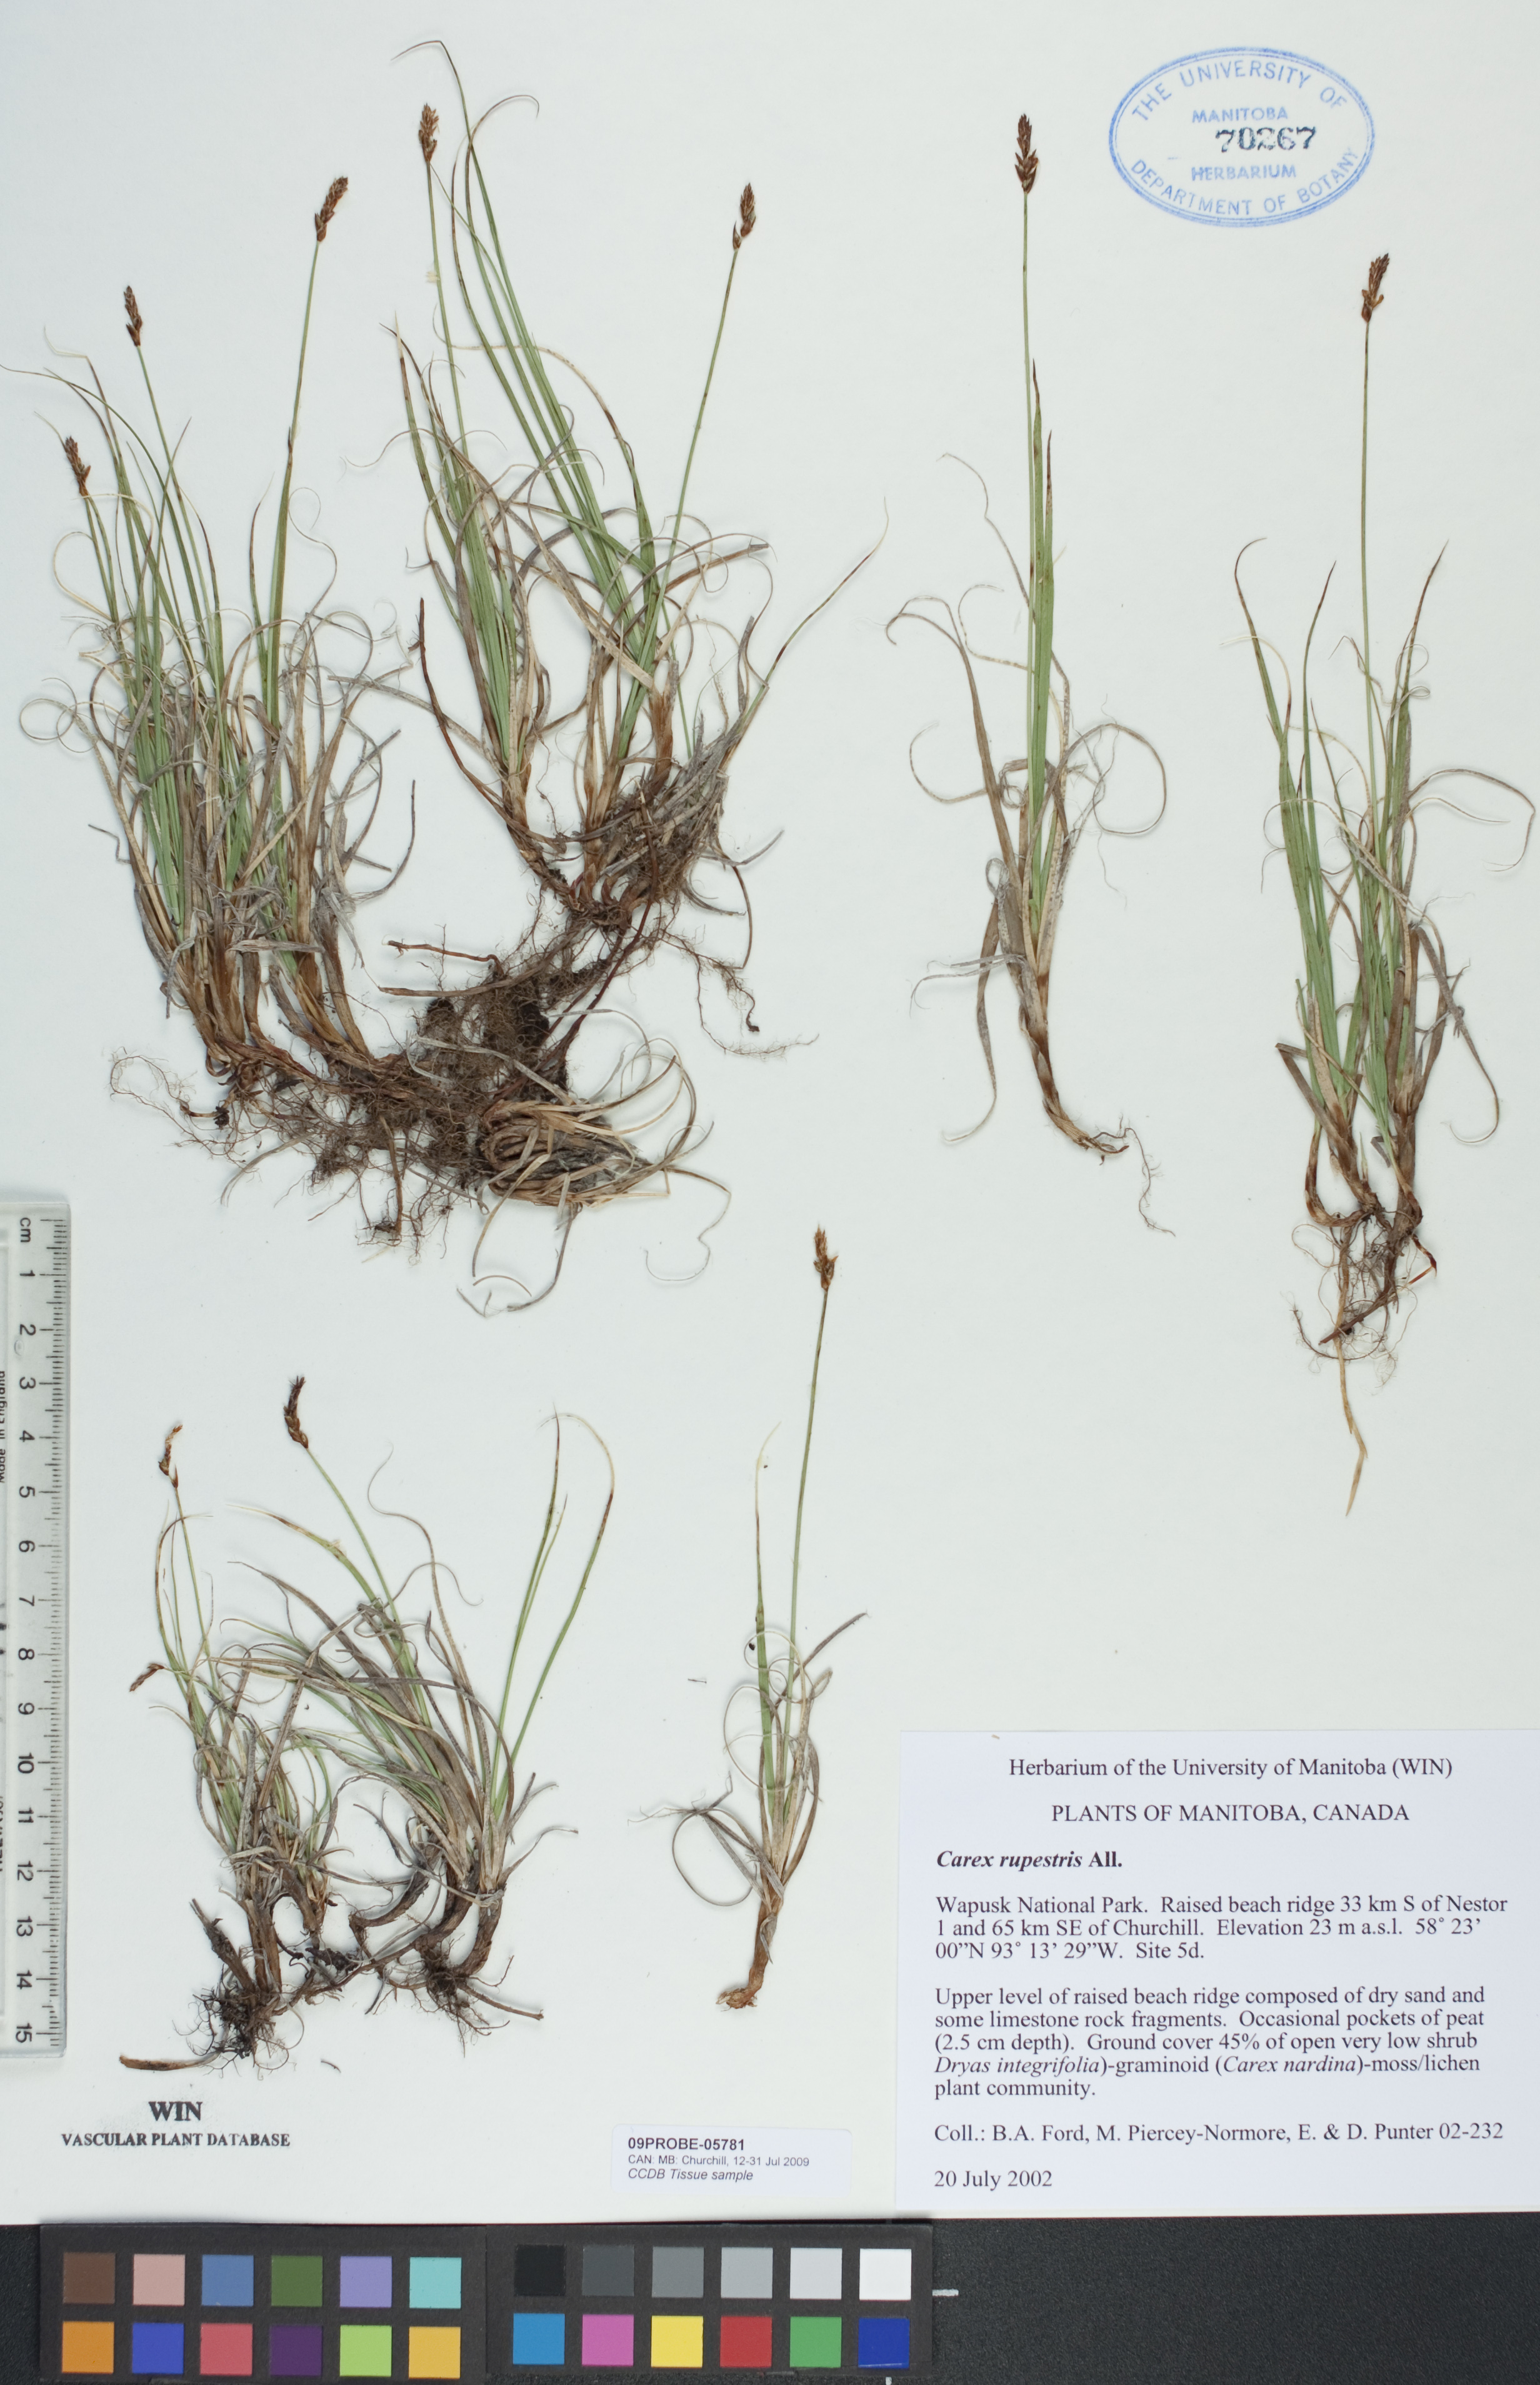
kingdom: Plantae
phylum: Tracheophyta
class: Liliopsida
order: Poales
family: Cyperaceae
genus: Carex
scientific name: Carex rupestris
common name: Rock sedge
